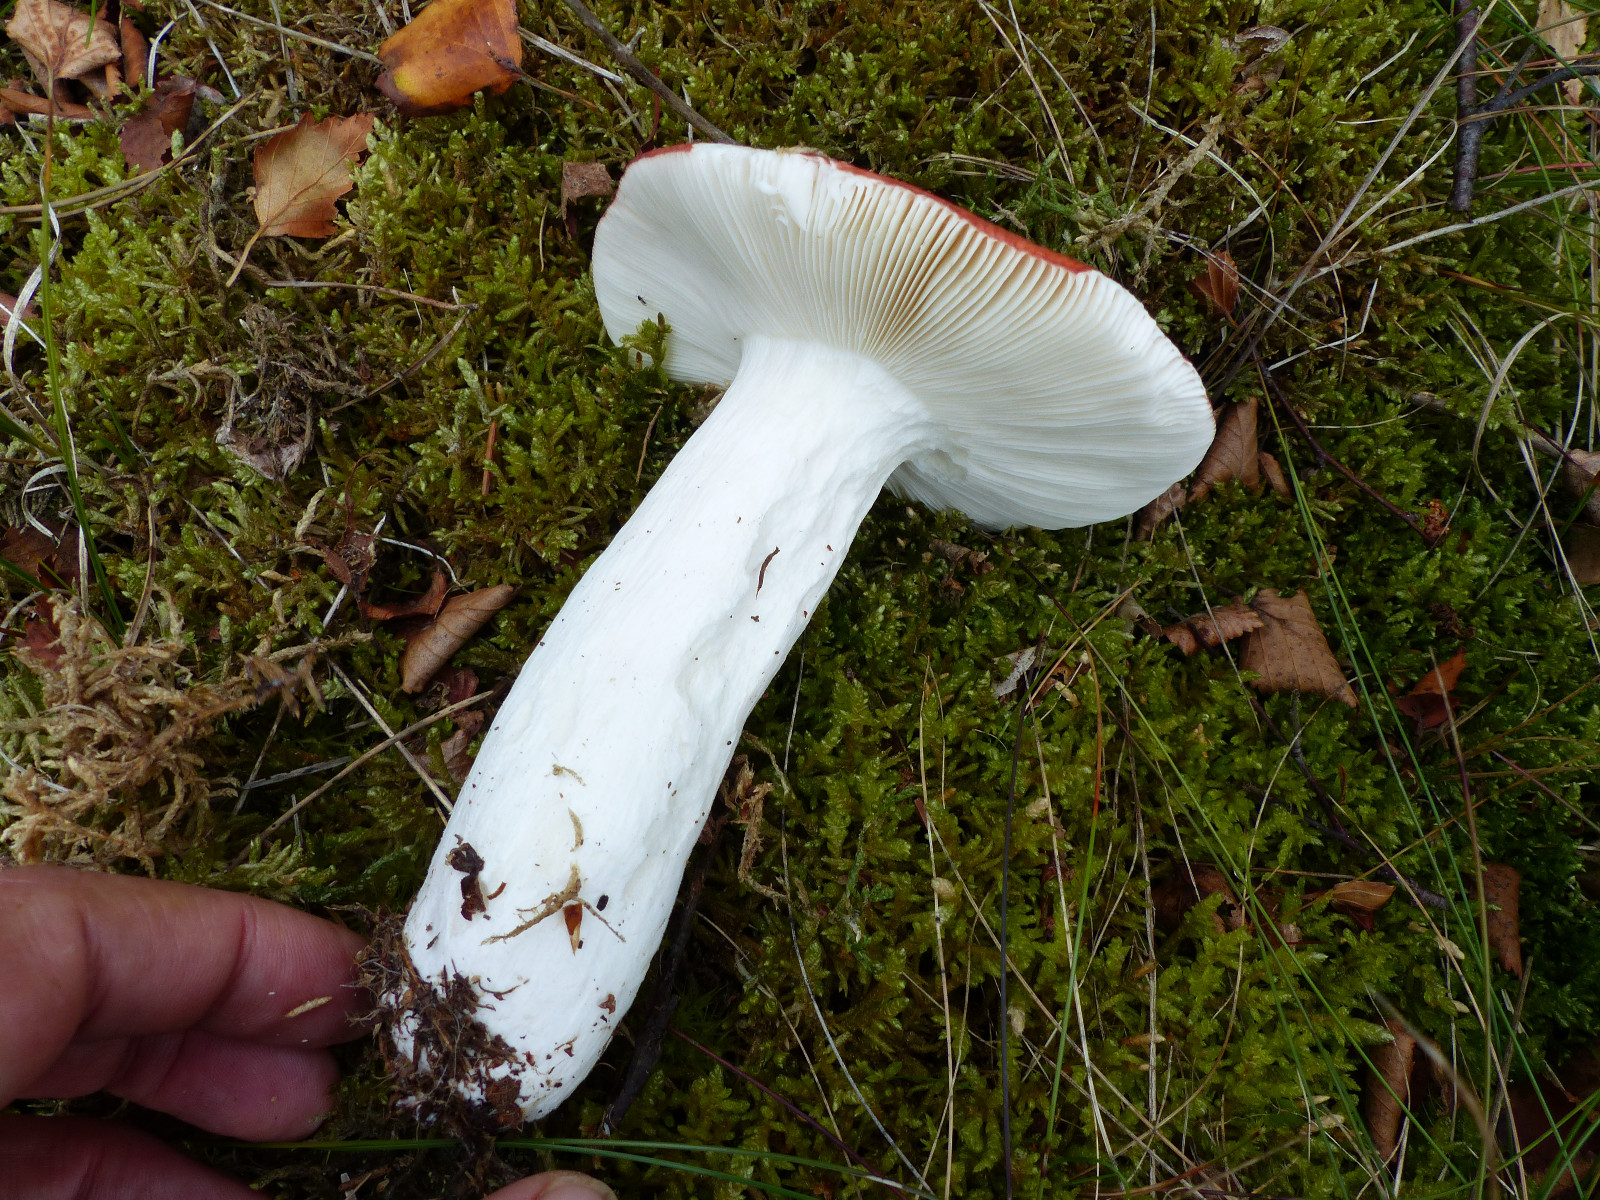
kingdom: Fungi
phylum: Basidiomycota
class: Agaricomycetes
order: Russulales
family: Russulaceae
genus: Russula
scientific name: Russula paludosa
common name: prægtig skørhat
